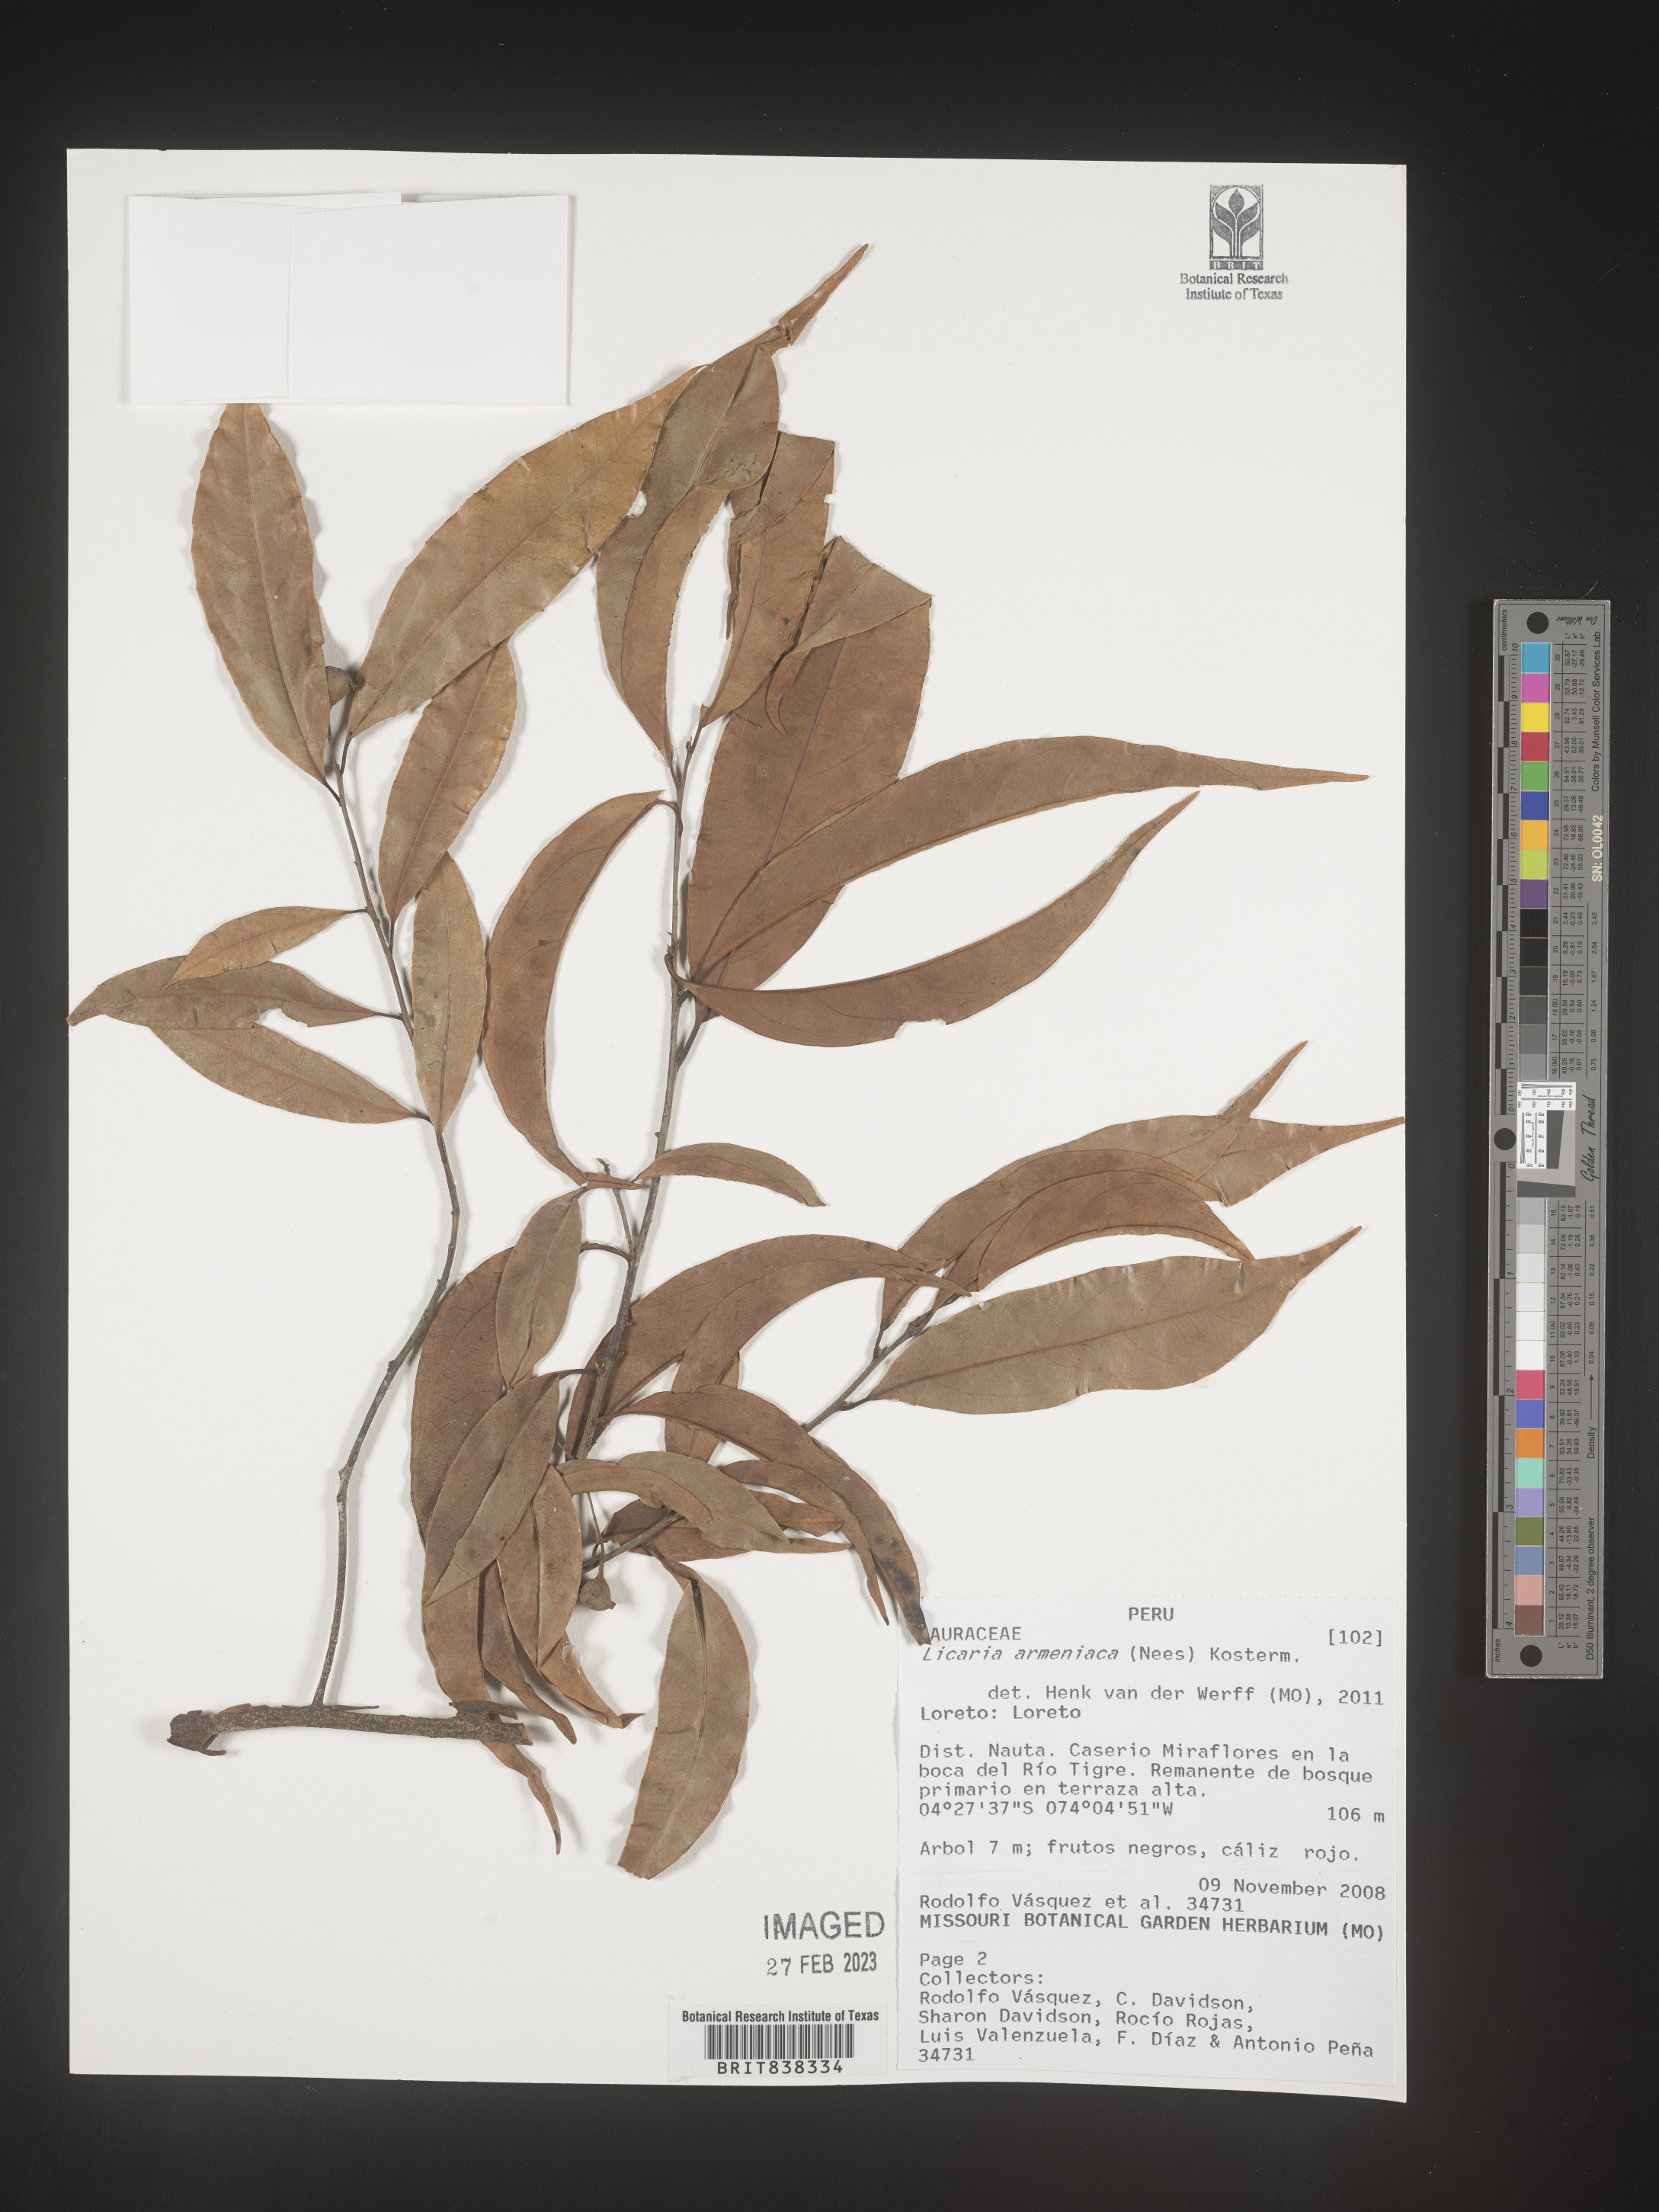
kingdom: Plantae
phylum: Tracheophyta
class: Magnoliopsida
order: Laurales
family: Lauraceae
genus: Licaria
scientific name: Licaria armeniaca
